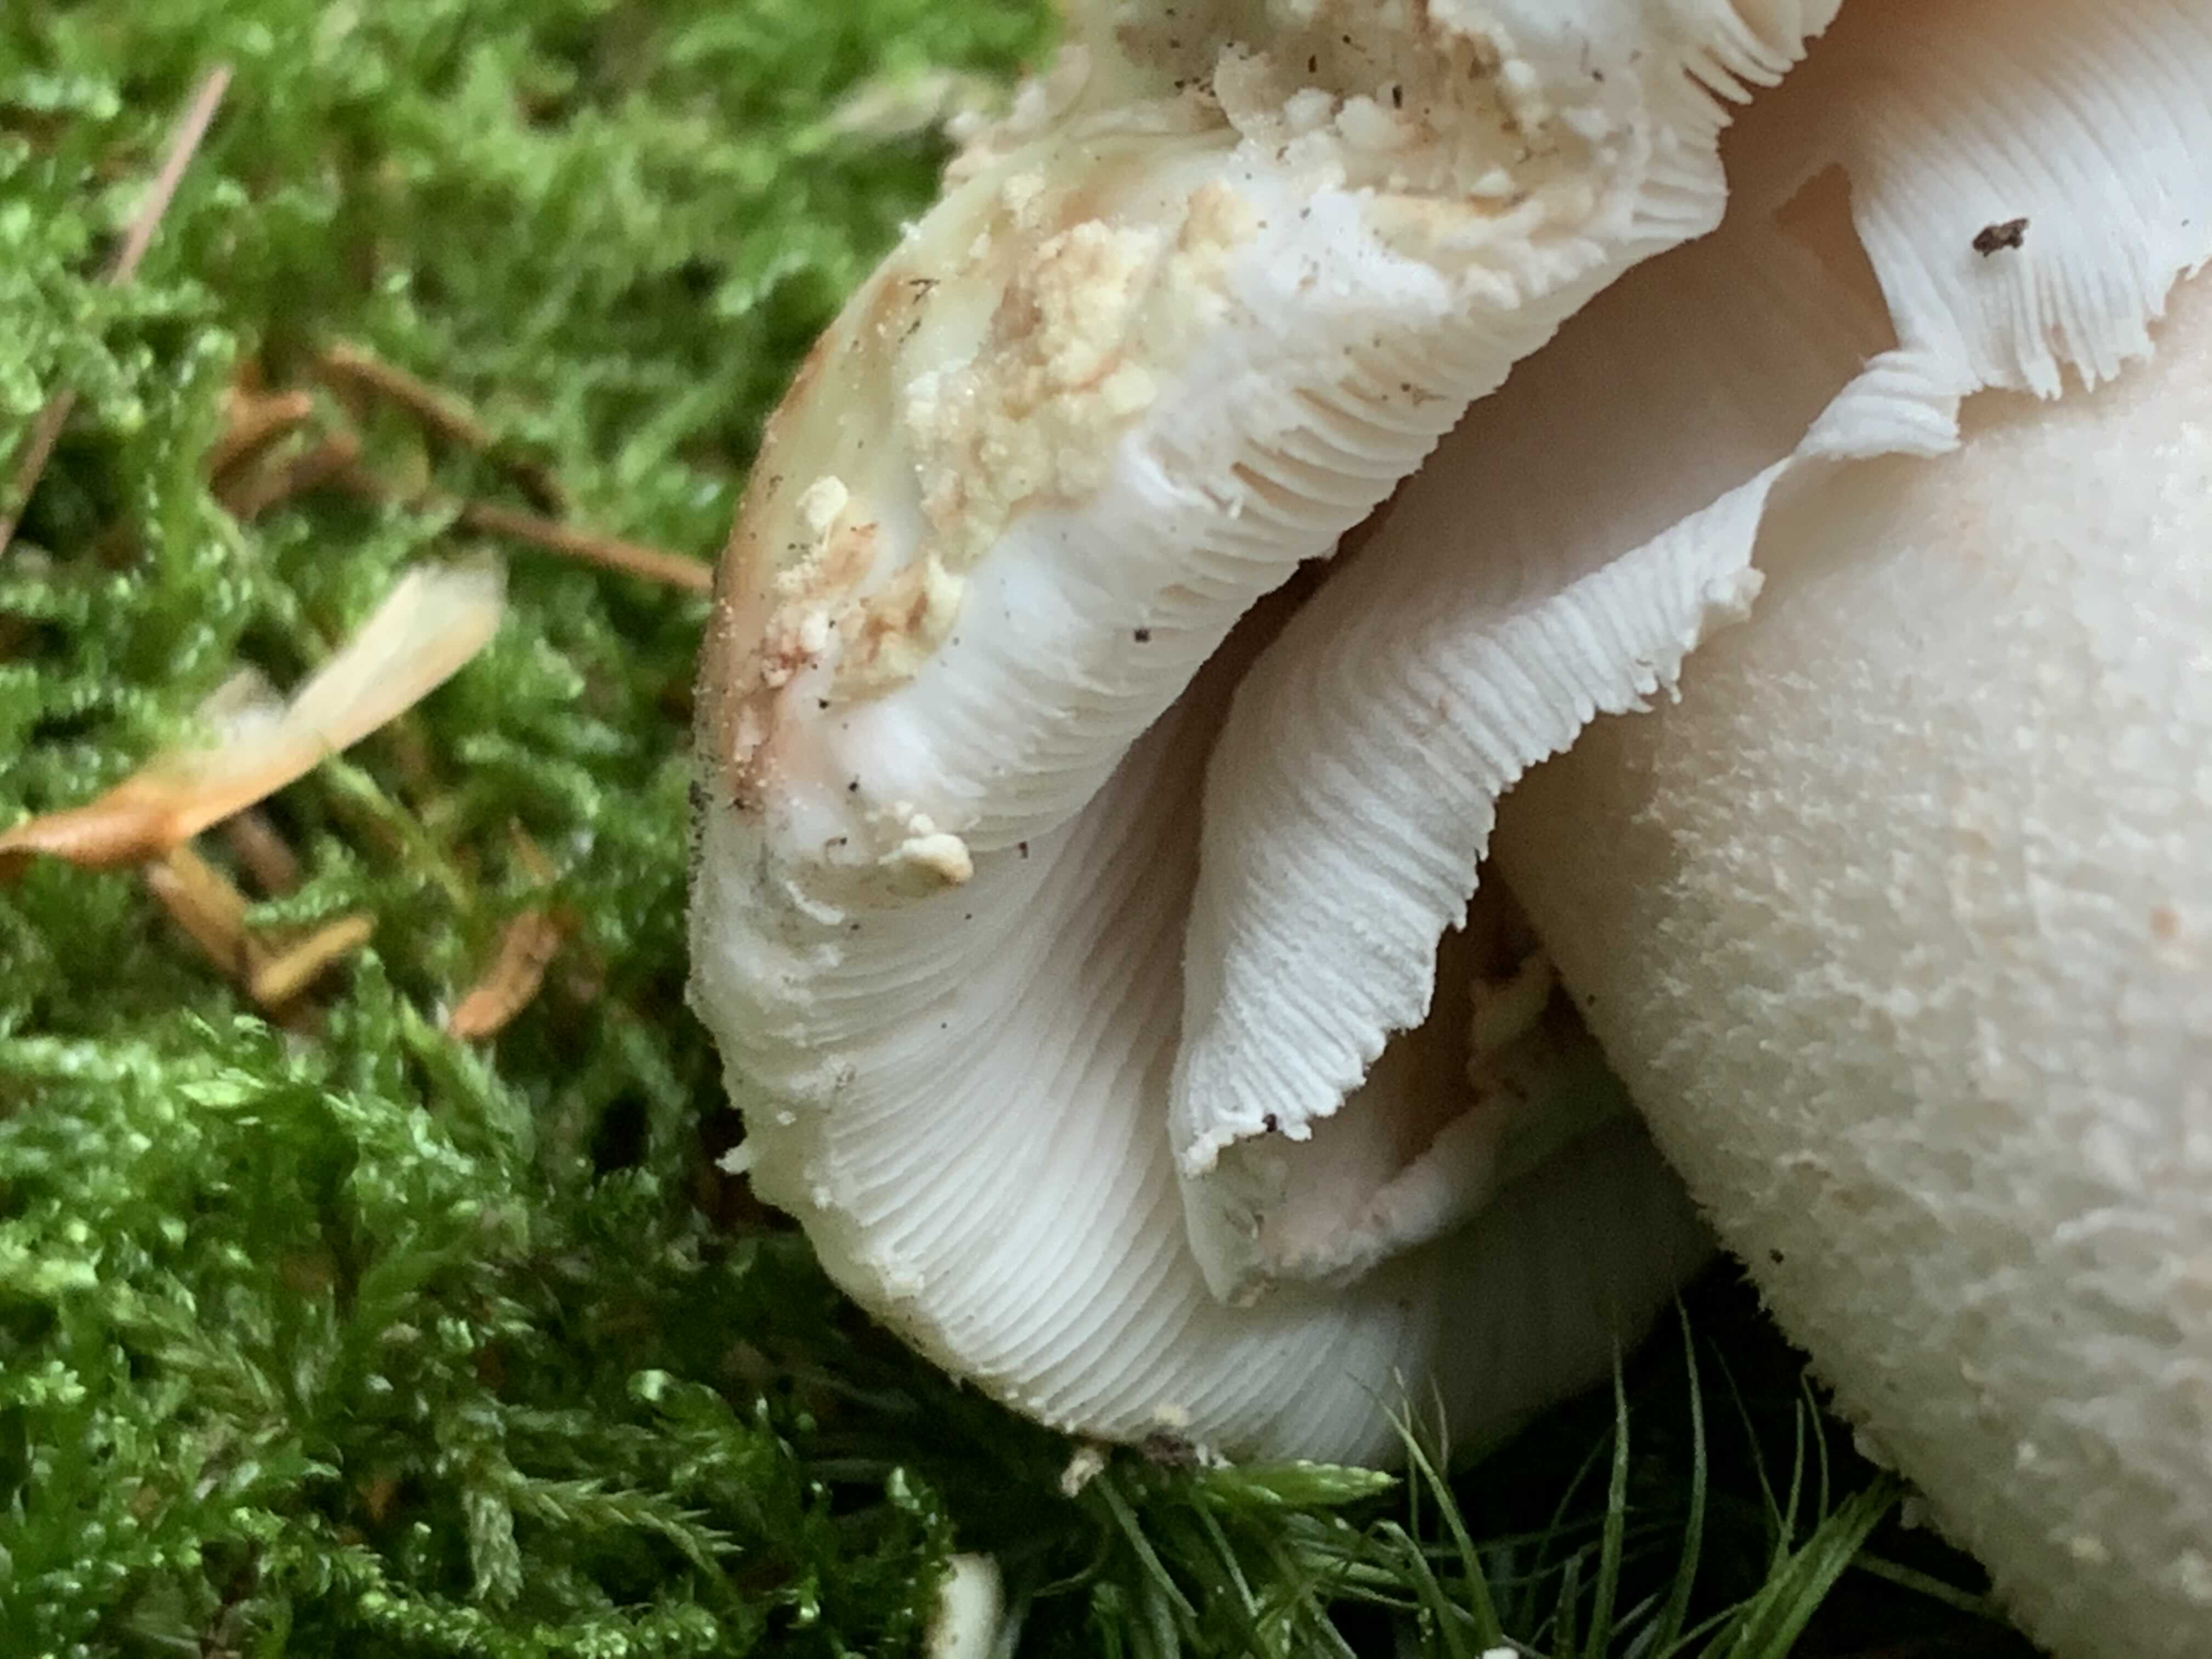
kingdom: Fungi
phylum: Basidiomycota
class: Agaricomycetes
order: Agaricales
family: Amanitaceae
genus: Amanita
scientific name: Amanita rubescens
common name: rødmende fluesvamp
